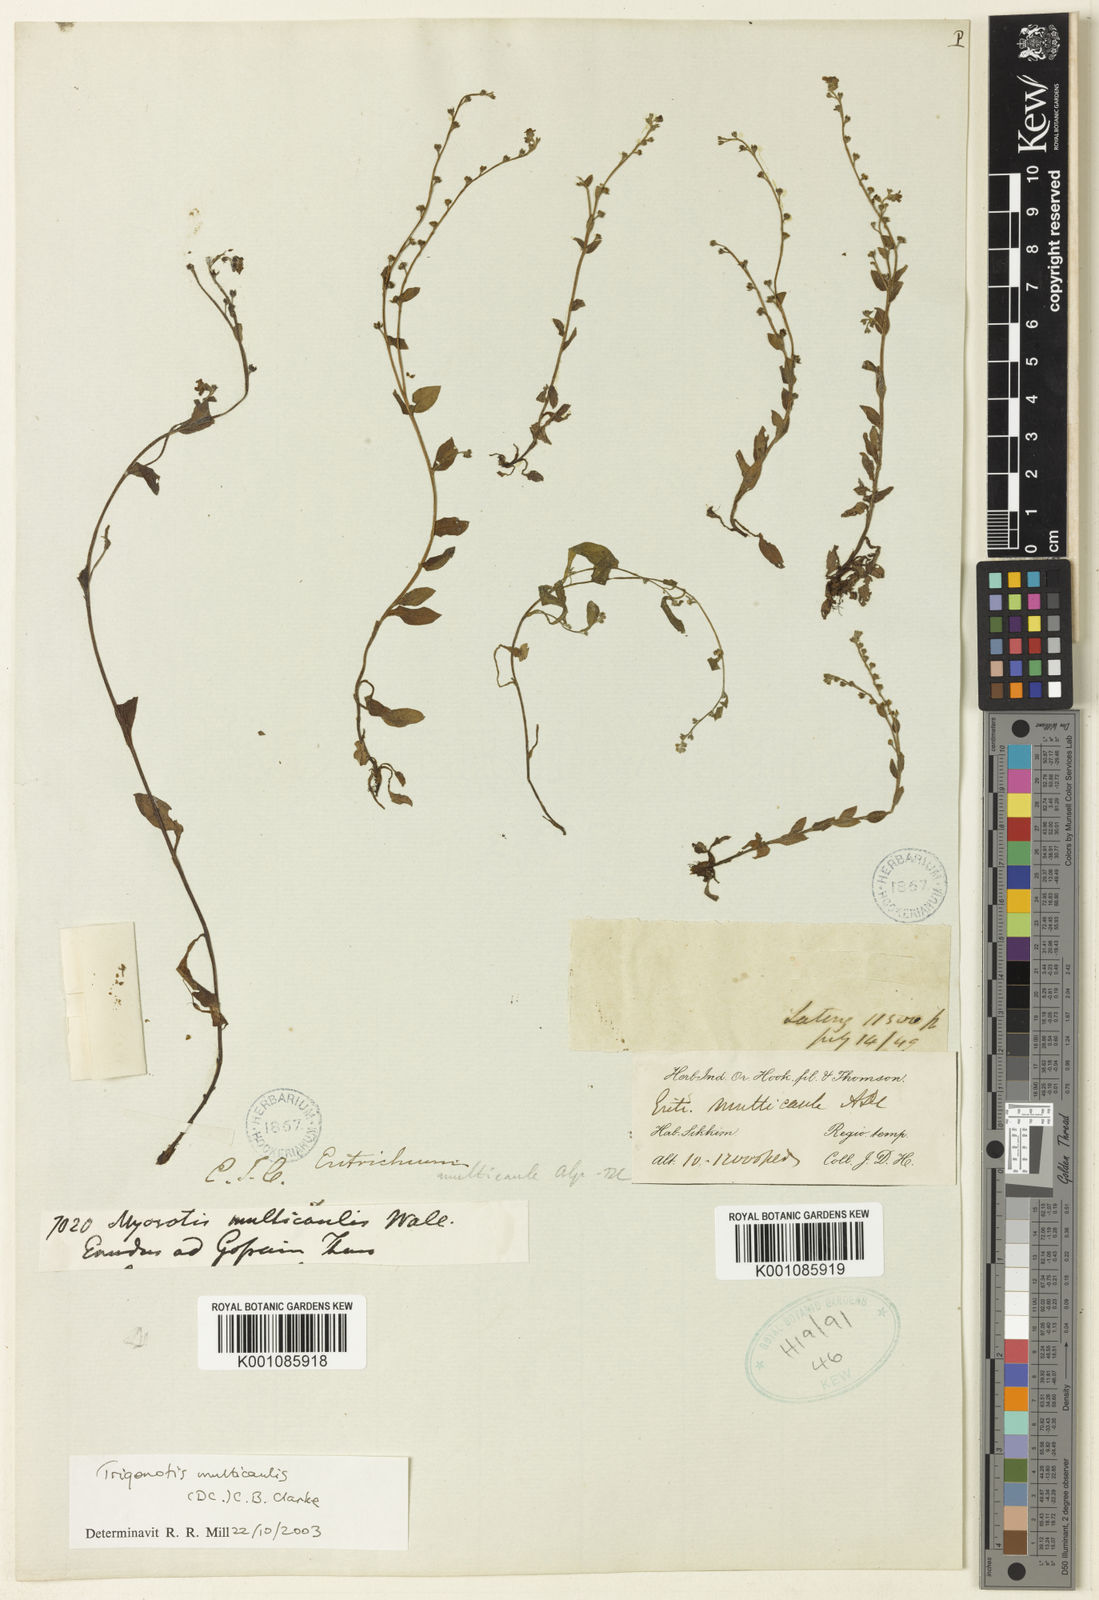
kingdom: Plantae
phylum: Tracheophyta
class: Magnoliopsida
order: Boraginales
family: Boraginaceae
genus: Trigonotis
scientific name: Trigonotis multicaulis
